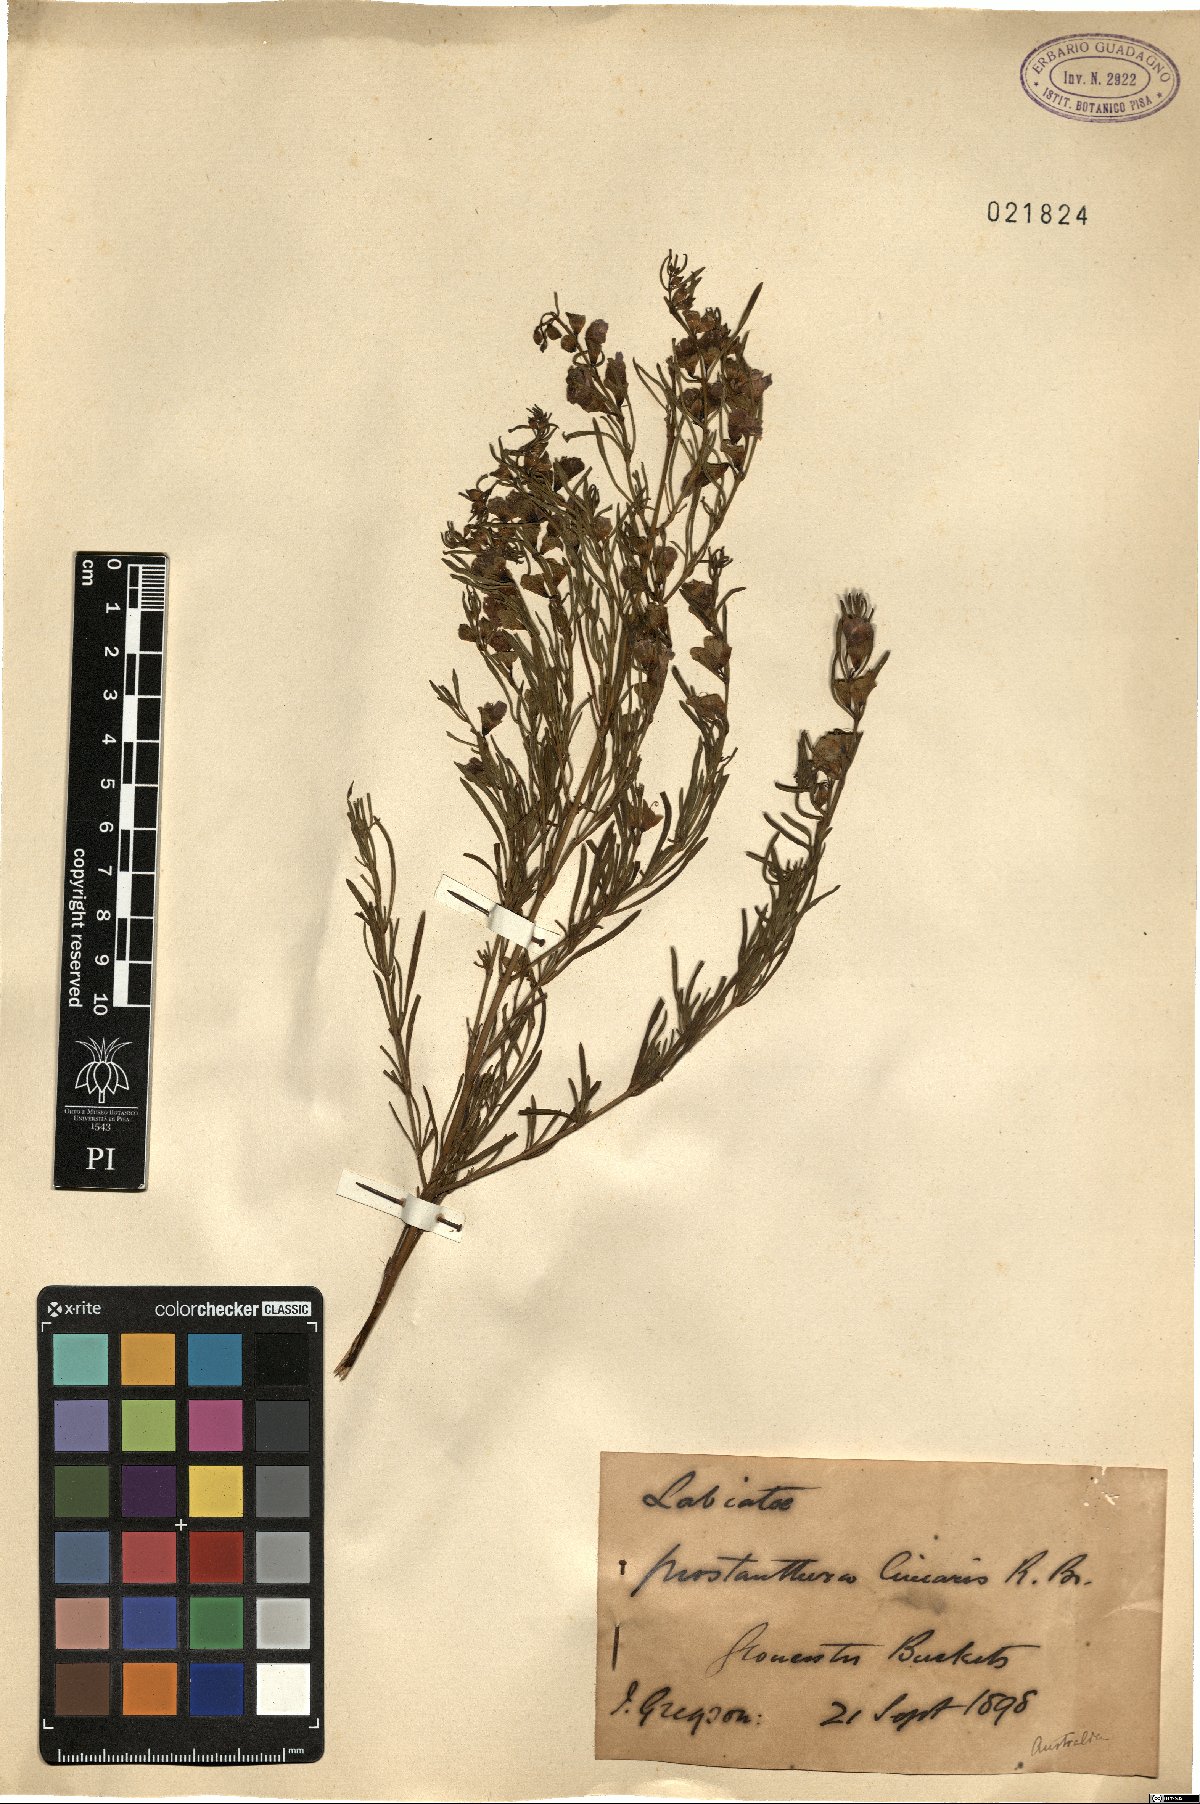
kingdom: Plantae
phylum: Tracheophyta
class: Magnoliopsida
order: Lamiales
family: Lamiaceae
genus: Prostanthera
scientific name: Prostanthera linearis
